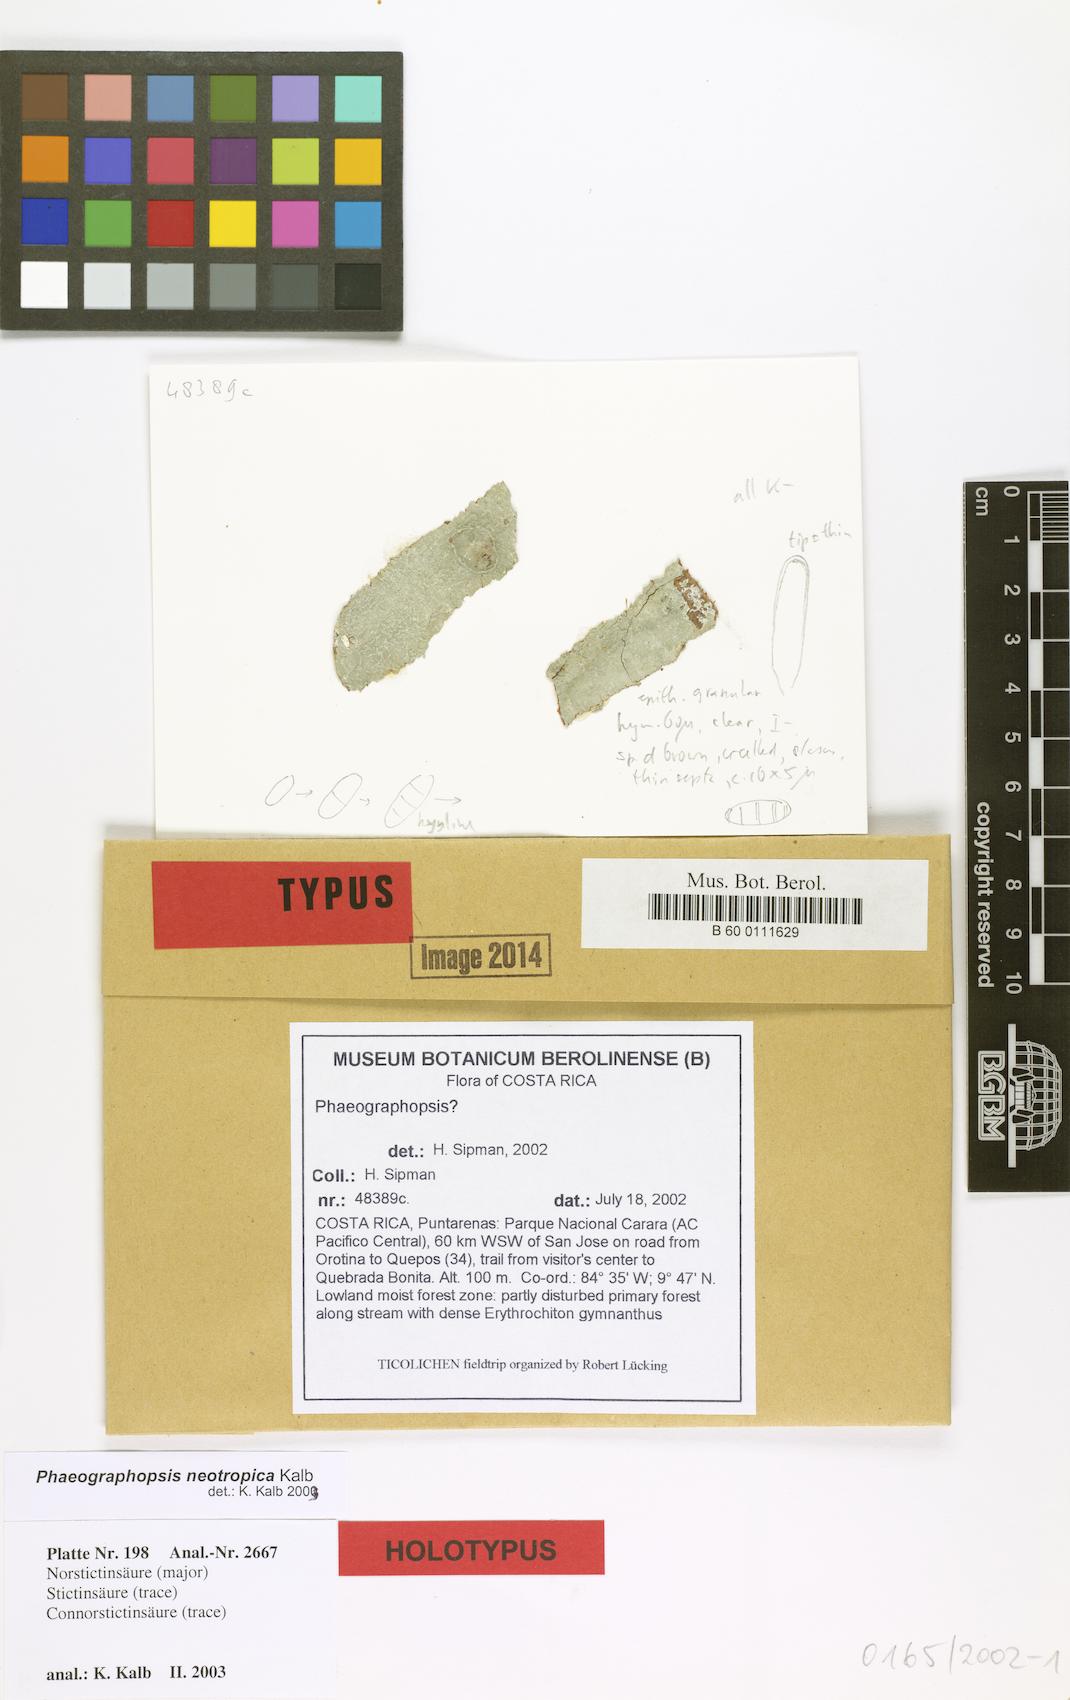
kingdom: Fungi
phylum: Ascomycota
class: Lecanoromycetes
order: Ostropales
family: Graphidaceae
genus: Phaeographopsis
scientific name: Phaeographopsis neotropica
